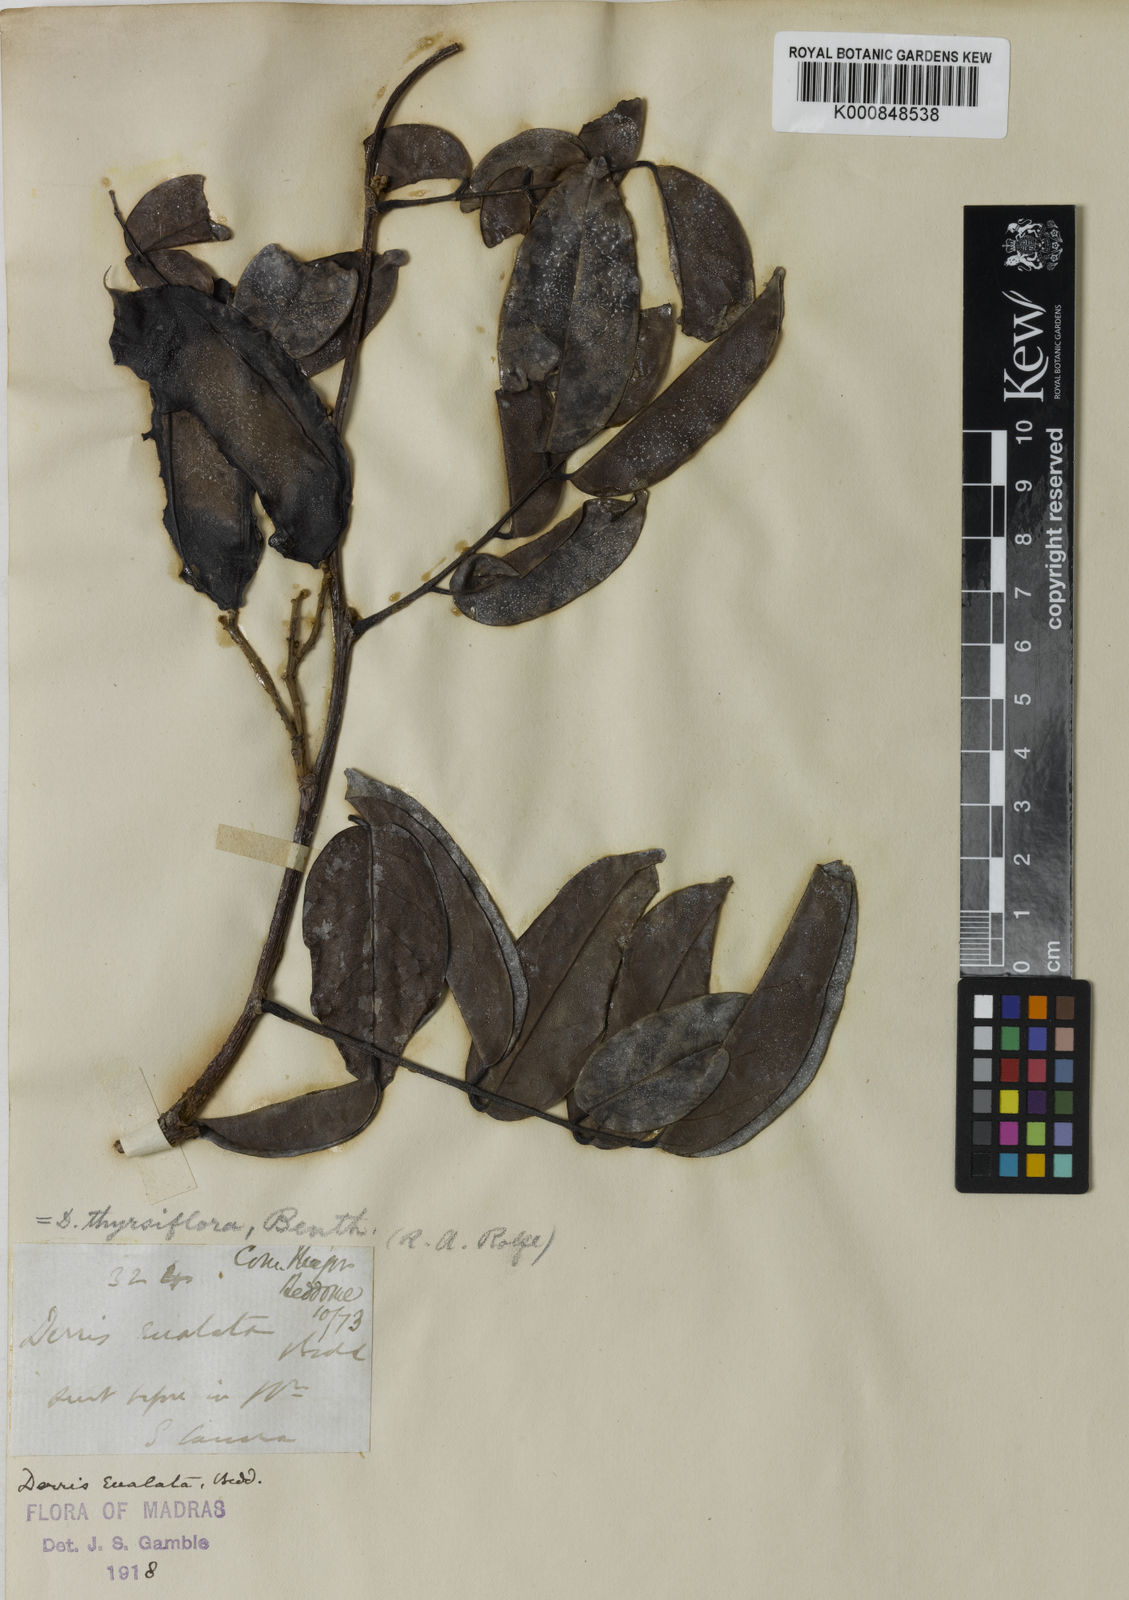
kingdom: Plantae
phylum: Tracheophyta
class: Magnoliopsida
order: Fabales
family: Fabaceae
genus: Aganope
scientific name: Aganope
